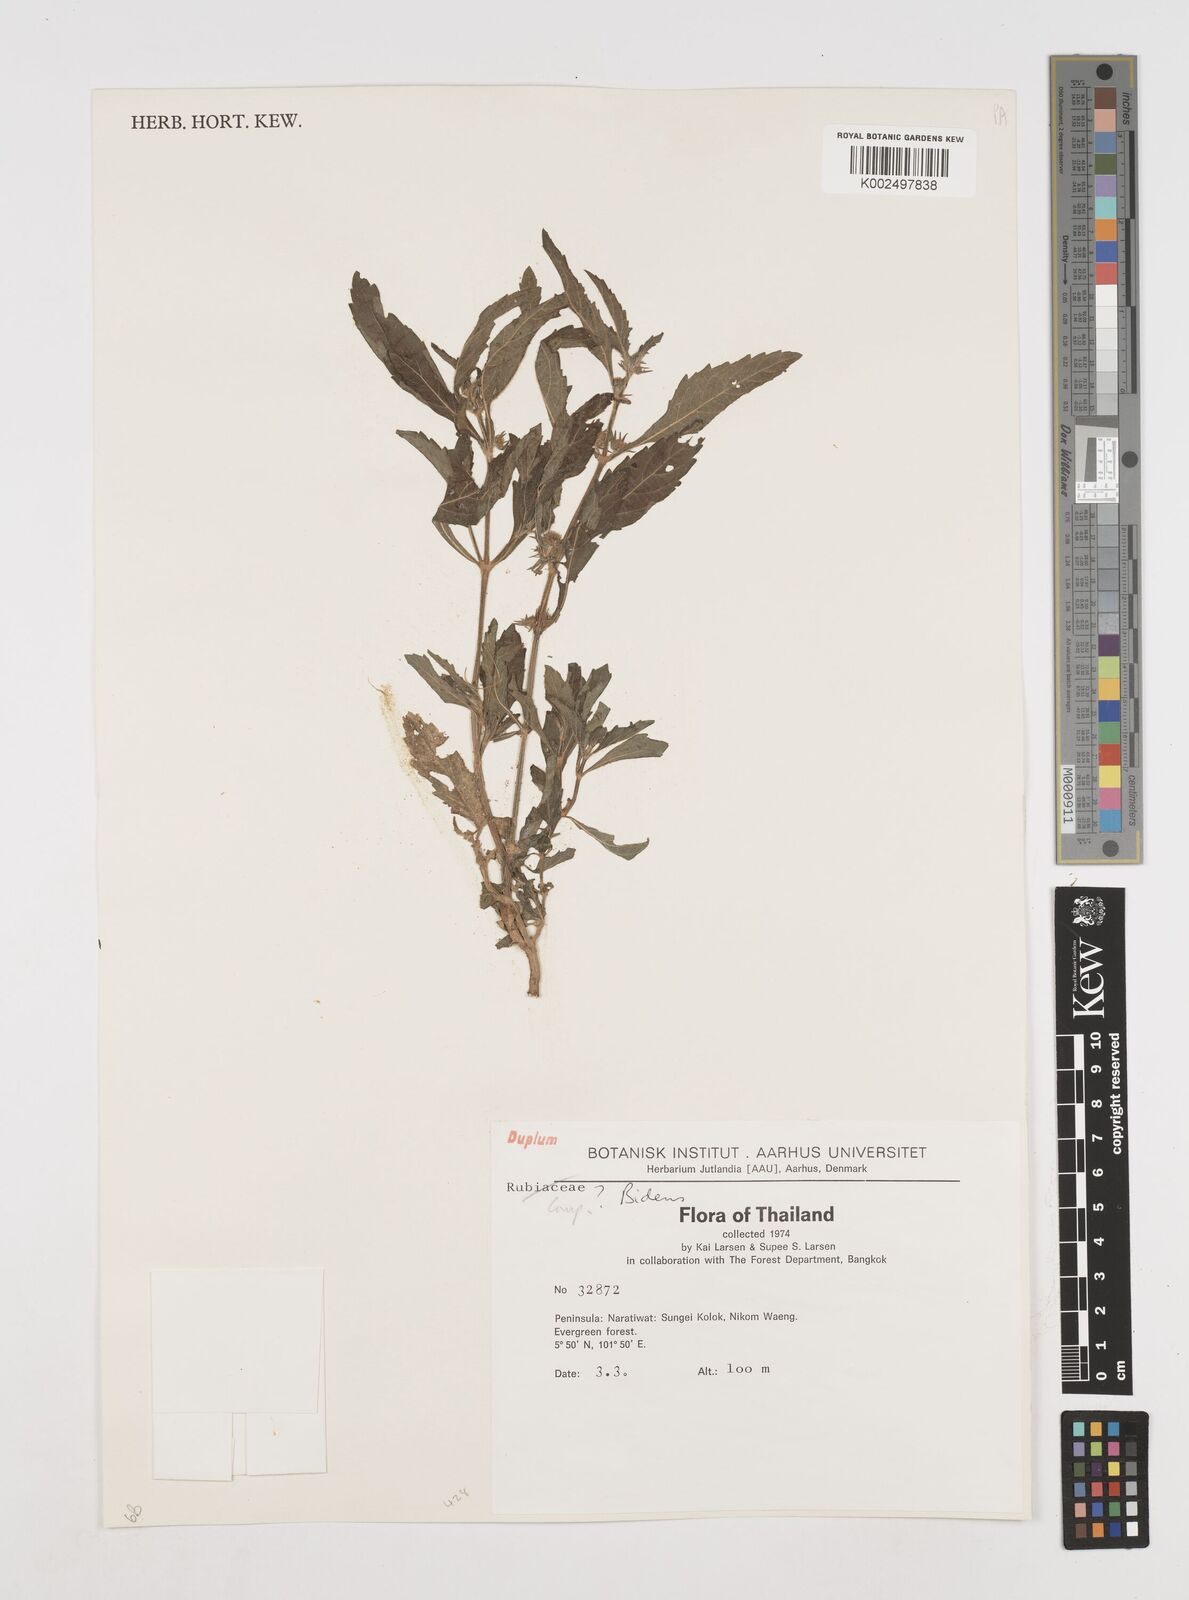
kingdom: Plantae
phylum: Tracheophyta
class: Magnoliopsida
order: Asterales
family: Asteraceae
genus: Bidens
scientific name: Bidens
